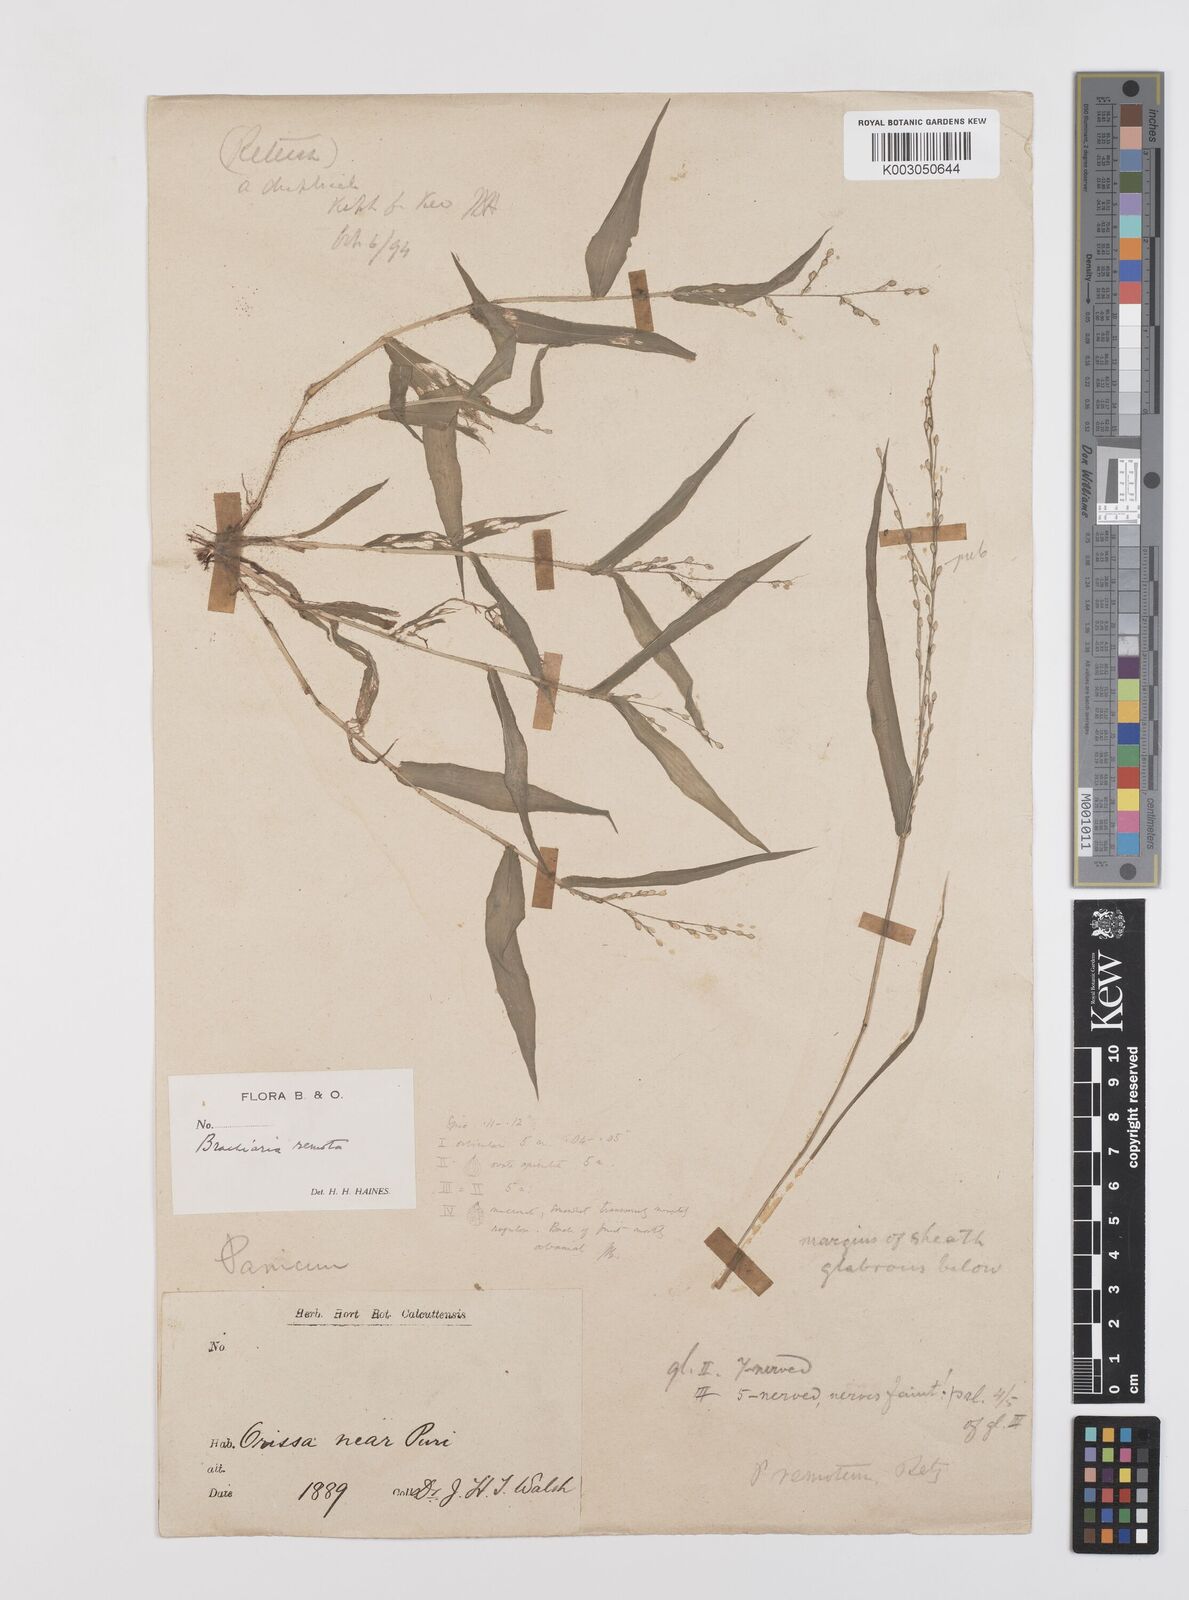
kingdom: Plantae
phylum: Tracheophyta
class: Liliopsida
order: Poales
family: Poaceae
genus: Urochloa
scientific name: Urochloa Brachiaria remota
